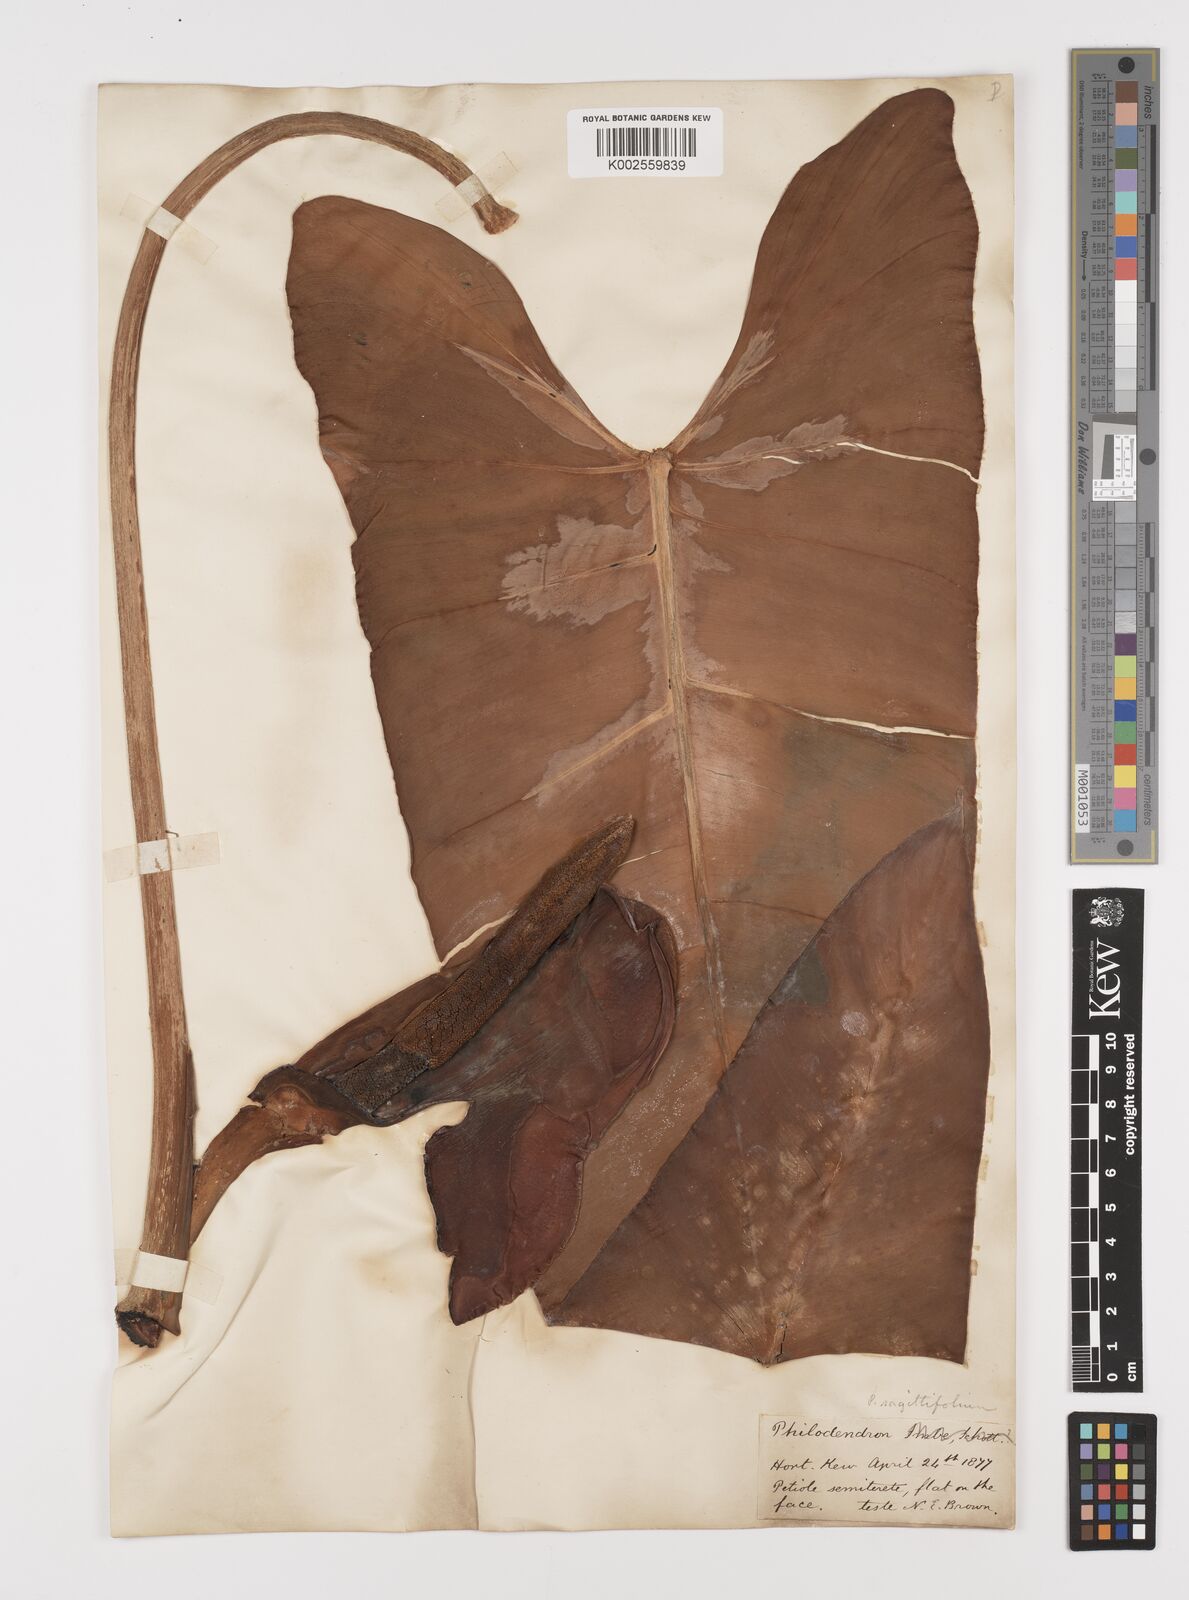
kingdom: Plantae
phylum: Tracheophyta
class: Liliopsida
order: Alismatales
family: Araceae
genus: Philodendron
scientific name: Philodendron sagittifolium
